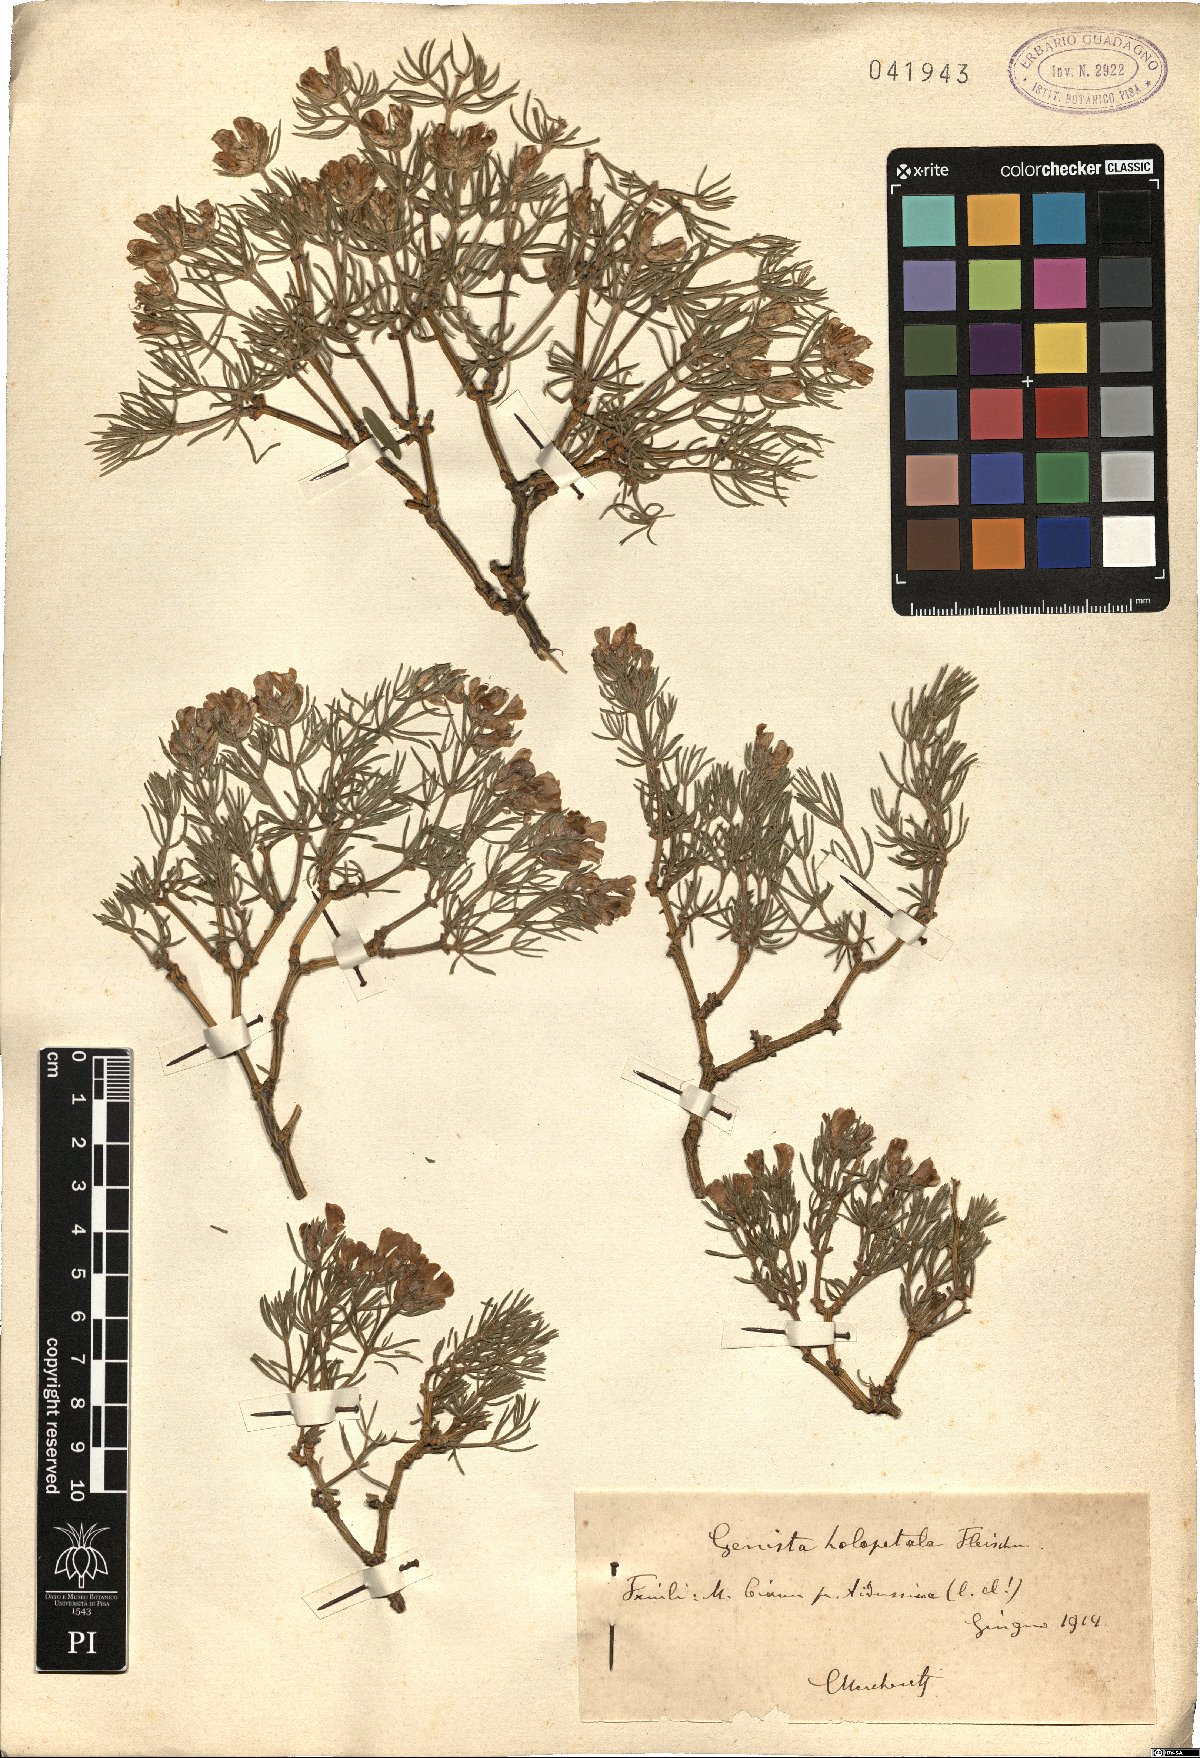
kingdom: Plantae
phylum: Tracheophyta
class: Magnoliopsida
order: Fabales
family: Fabaceae
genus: Genista
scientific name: Genista holopetala
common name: Entire-petalled gorse
